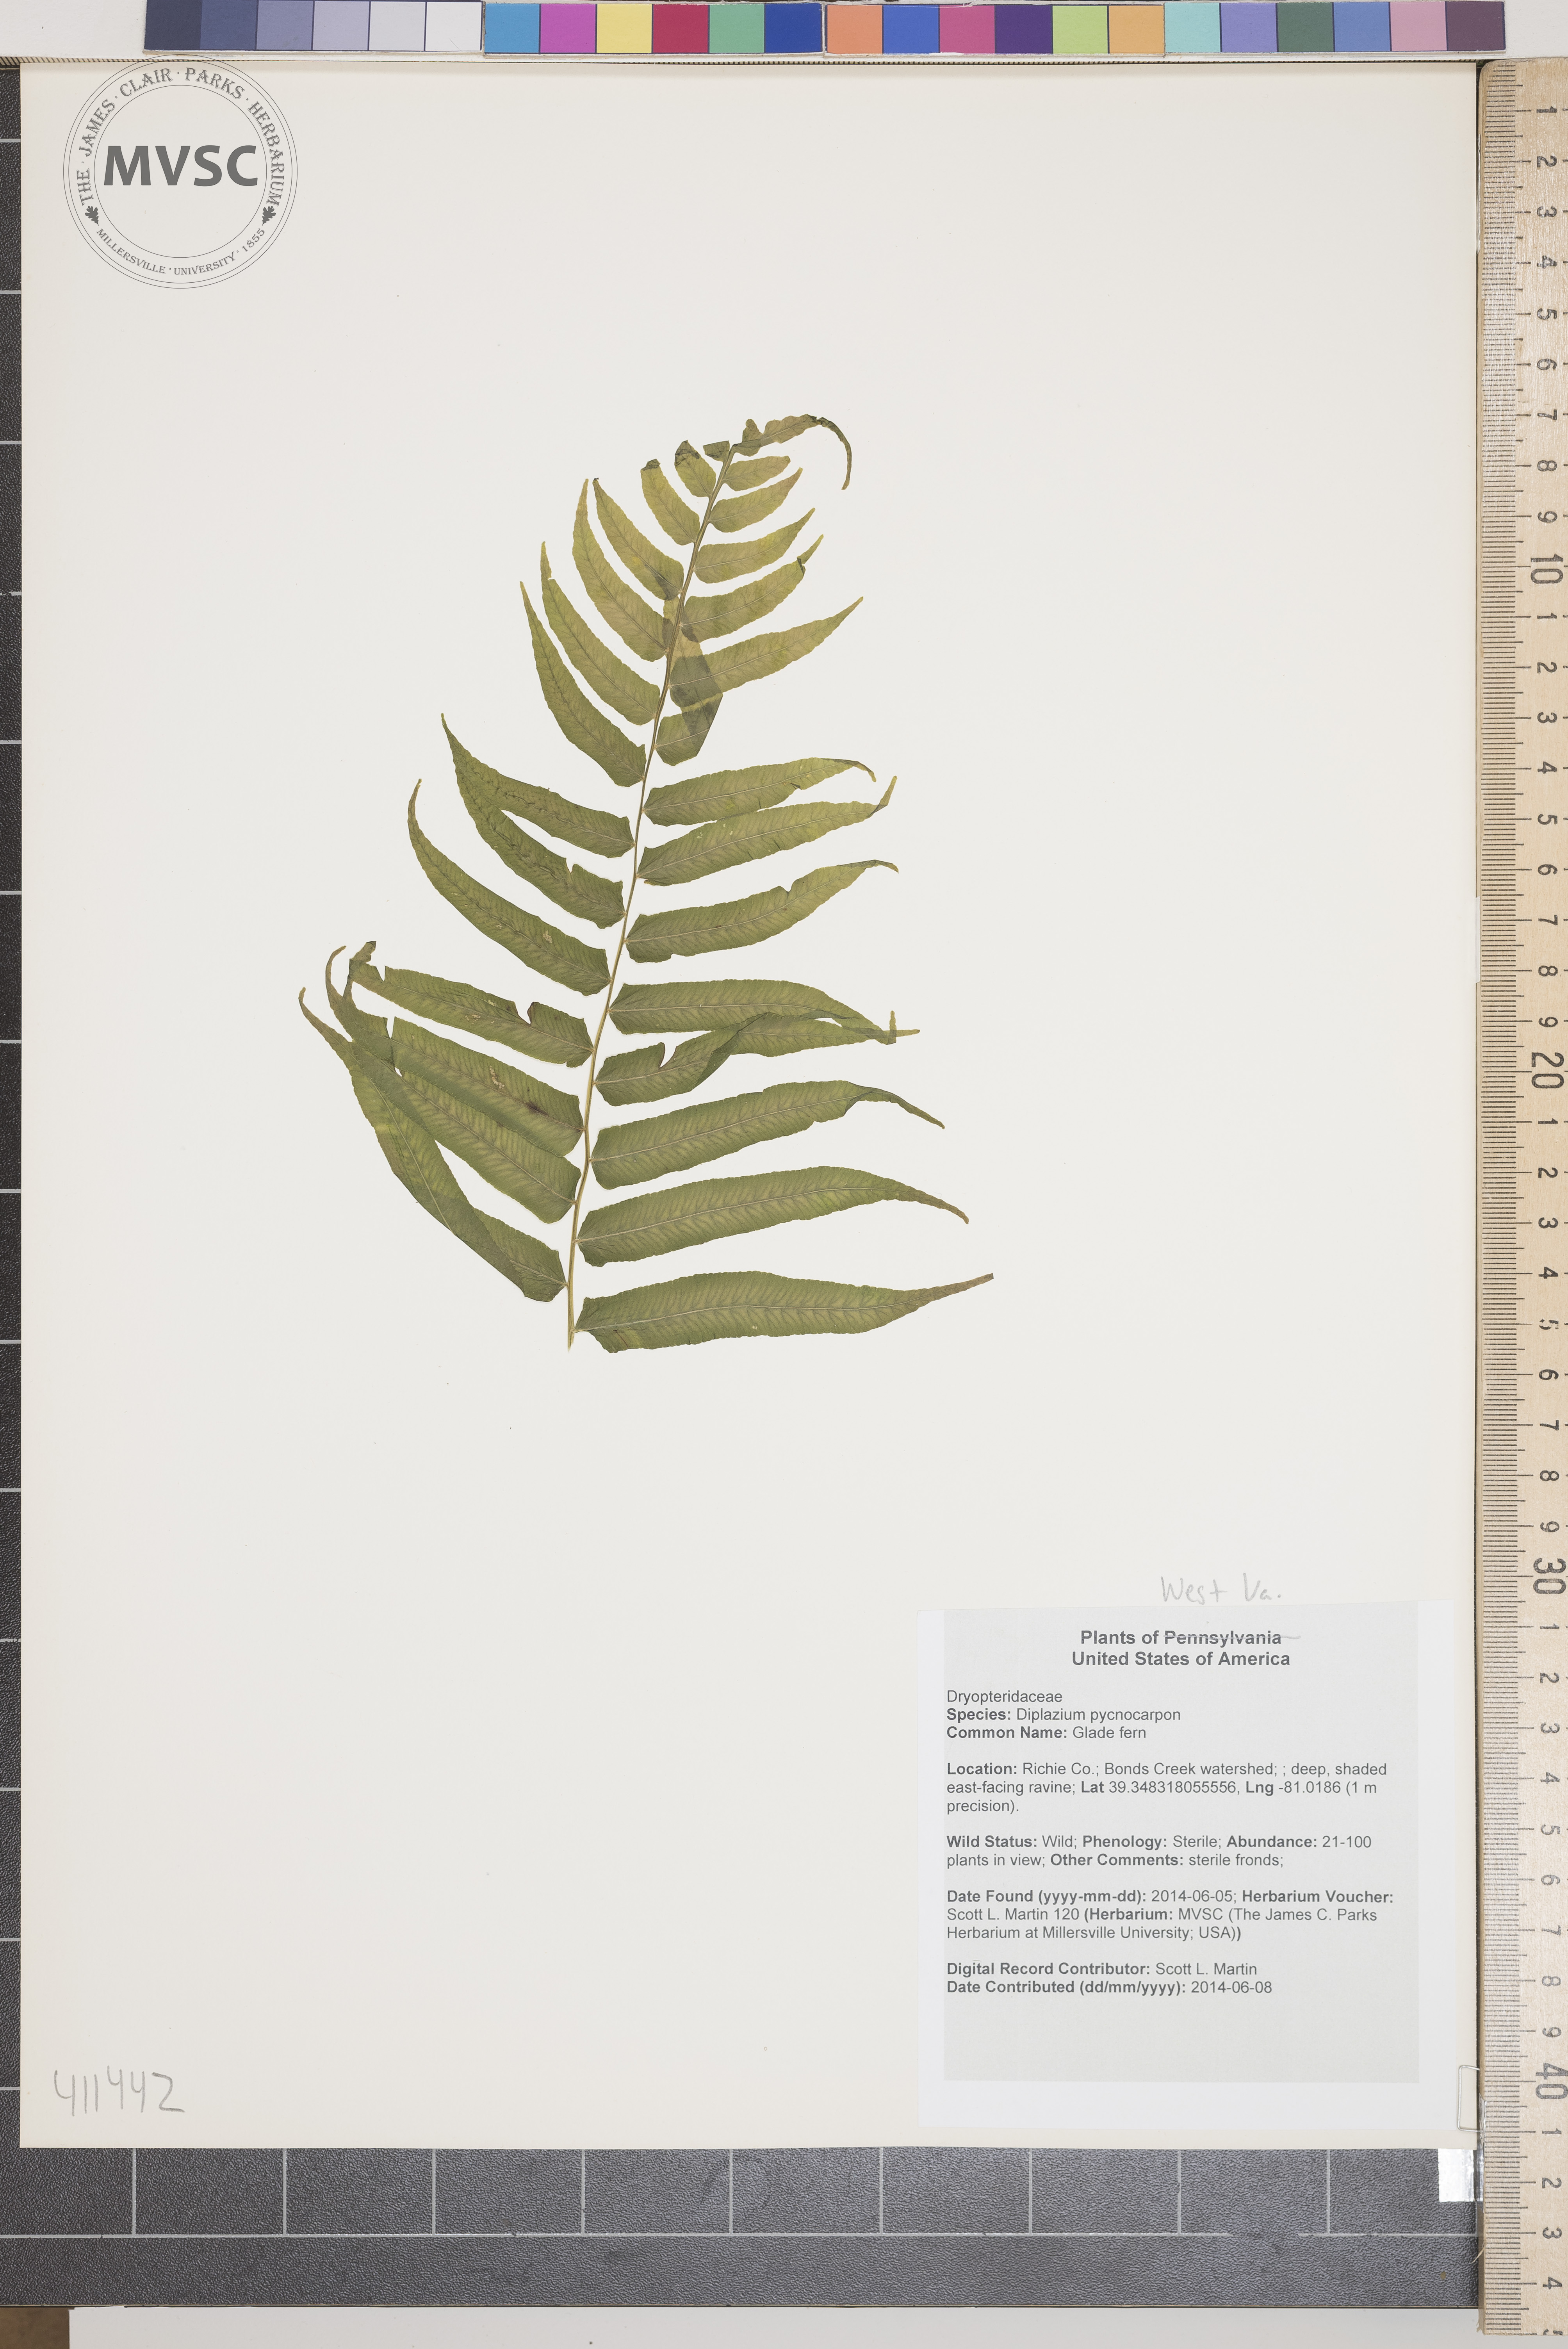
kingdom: Plantae
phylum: Tracheophyta
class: Polypodiopsida
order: Polypodiales
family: Diplaziopsidaceae
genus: Homalosorus
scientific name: Homalosorus pycnocarpos
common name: Glade fern
